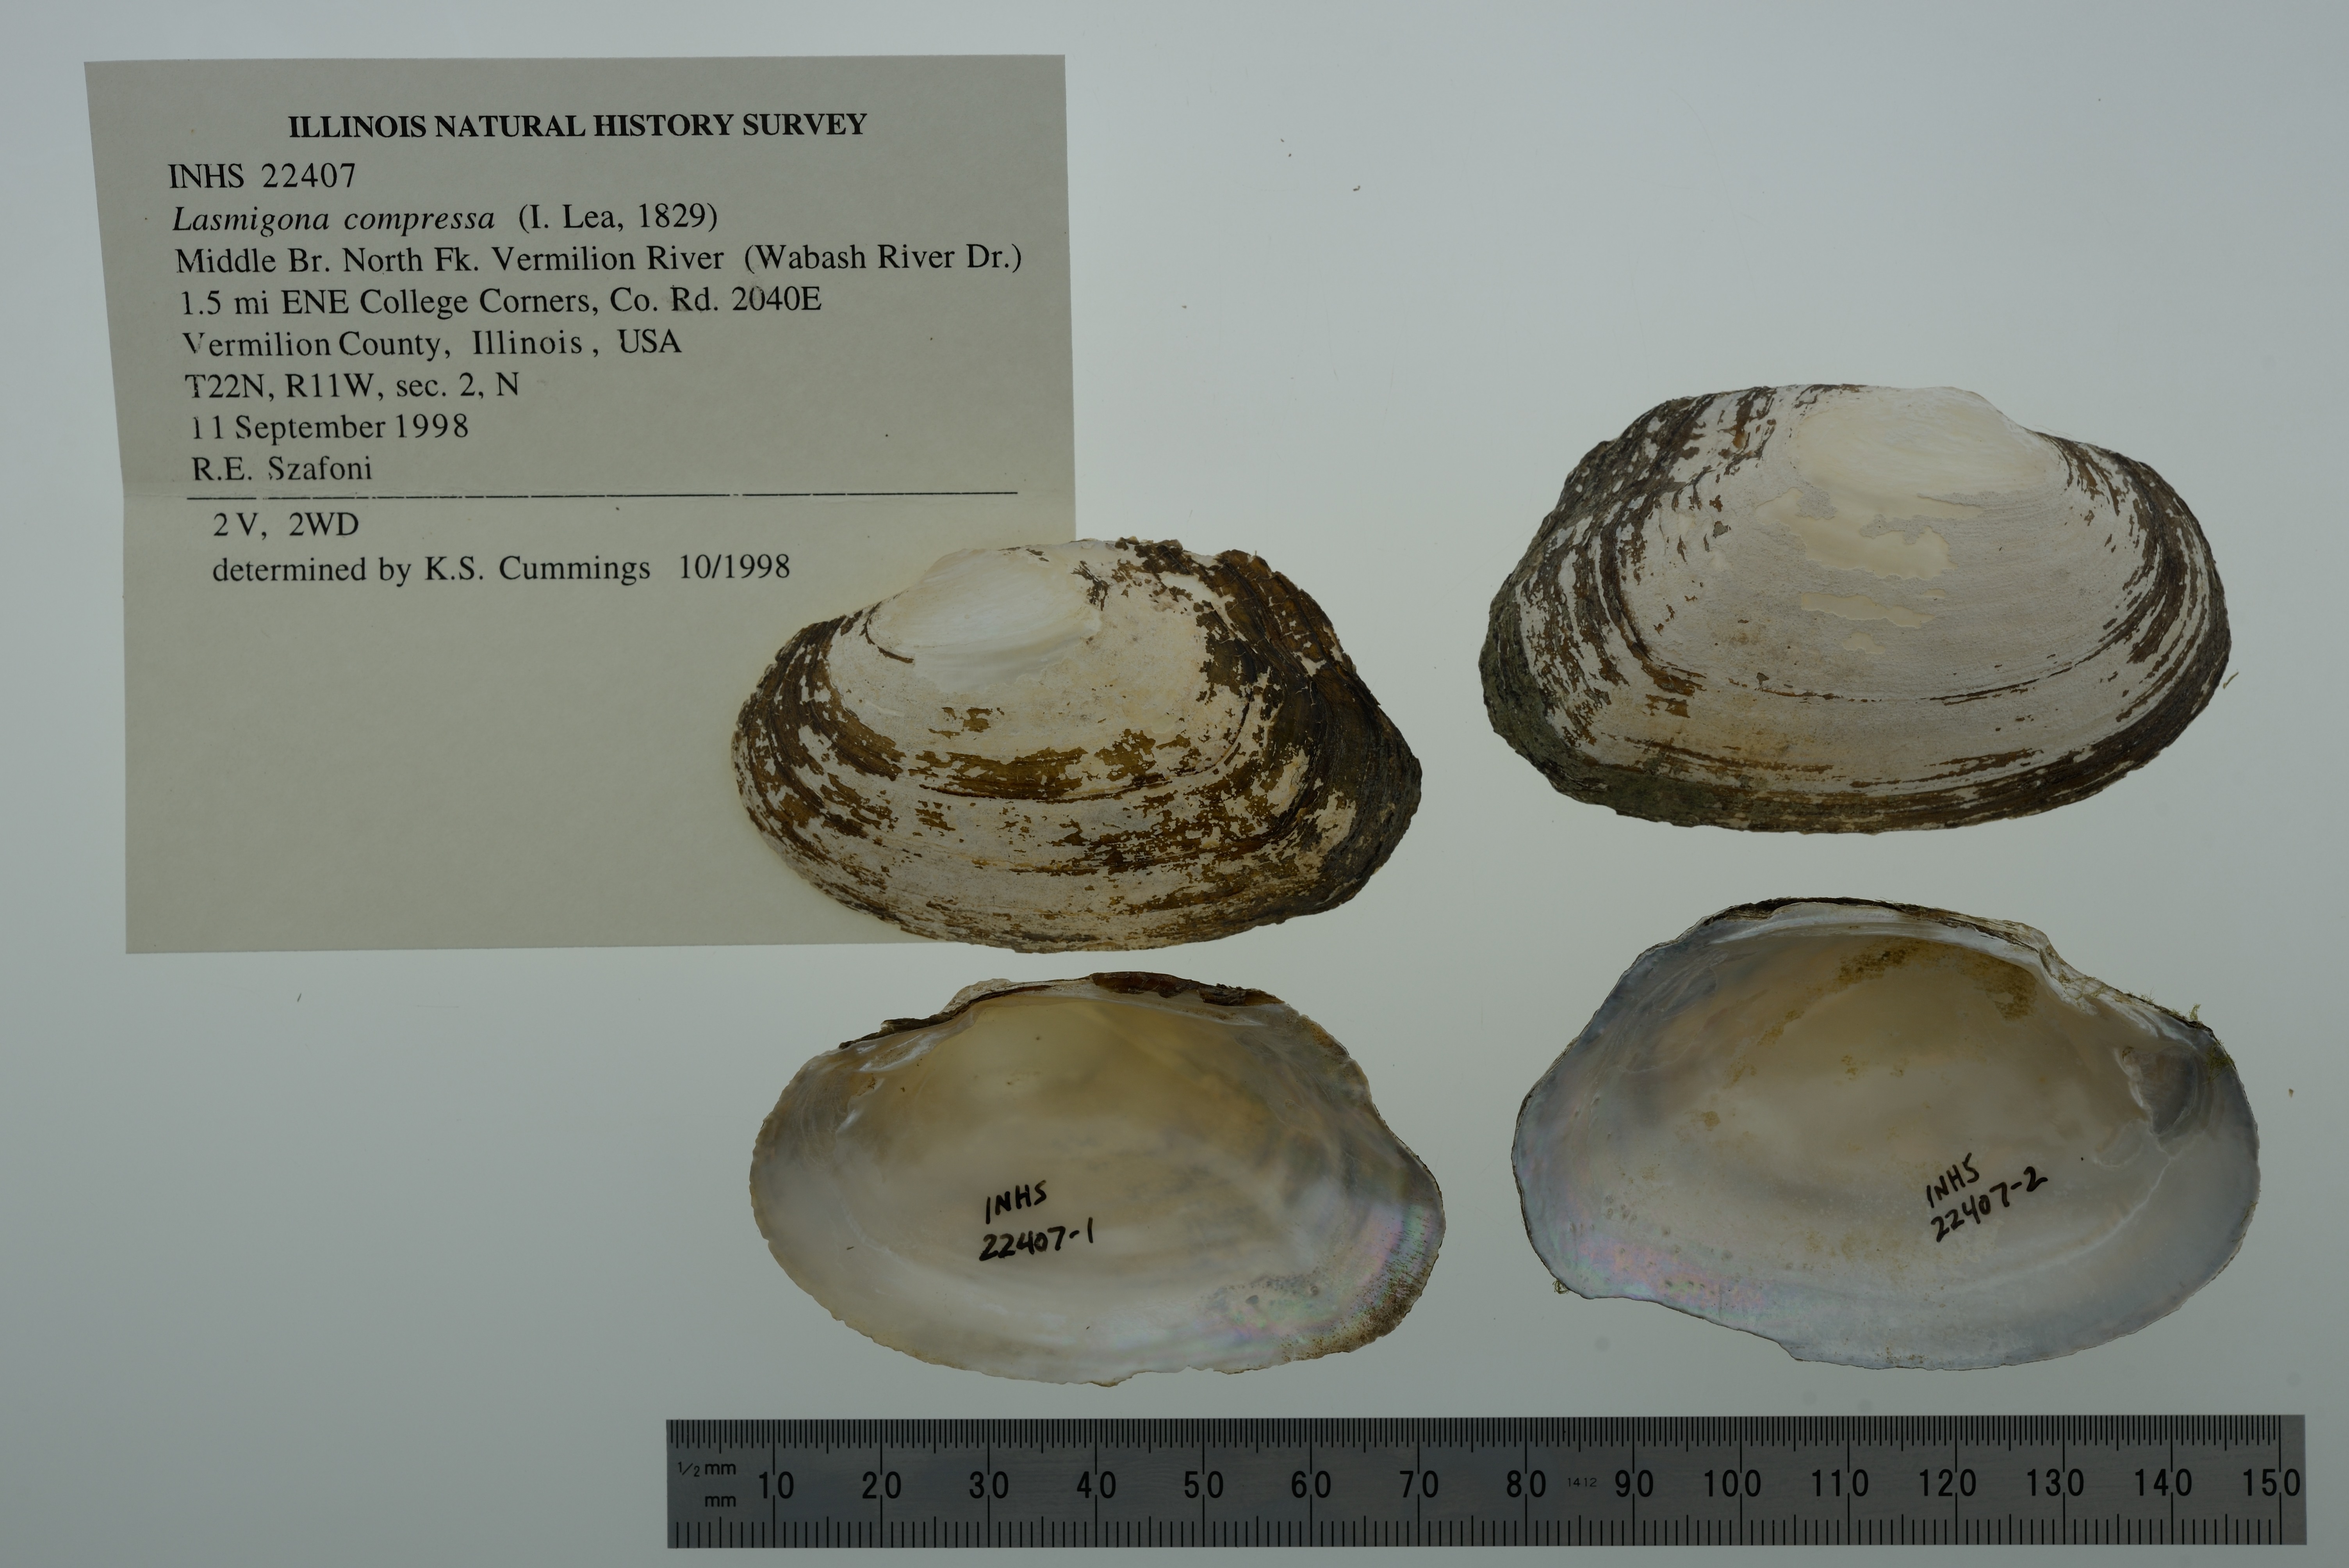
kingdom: Animalia
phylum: Mollusca
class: Bivalvia
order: Unionida
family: Unionidae
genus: Lasmigona
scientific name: Lasmigona compressa
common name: Creek heelsplitter
